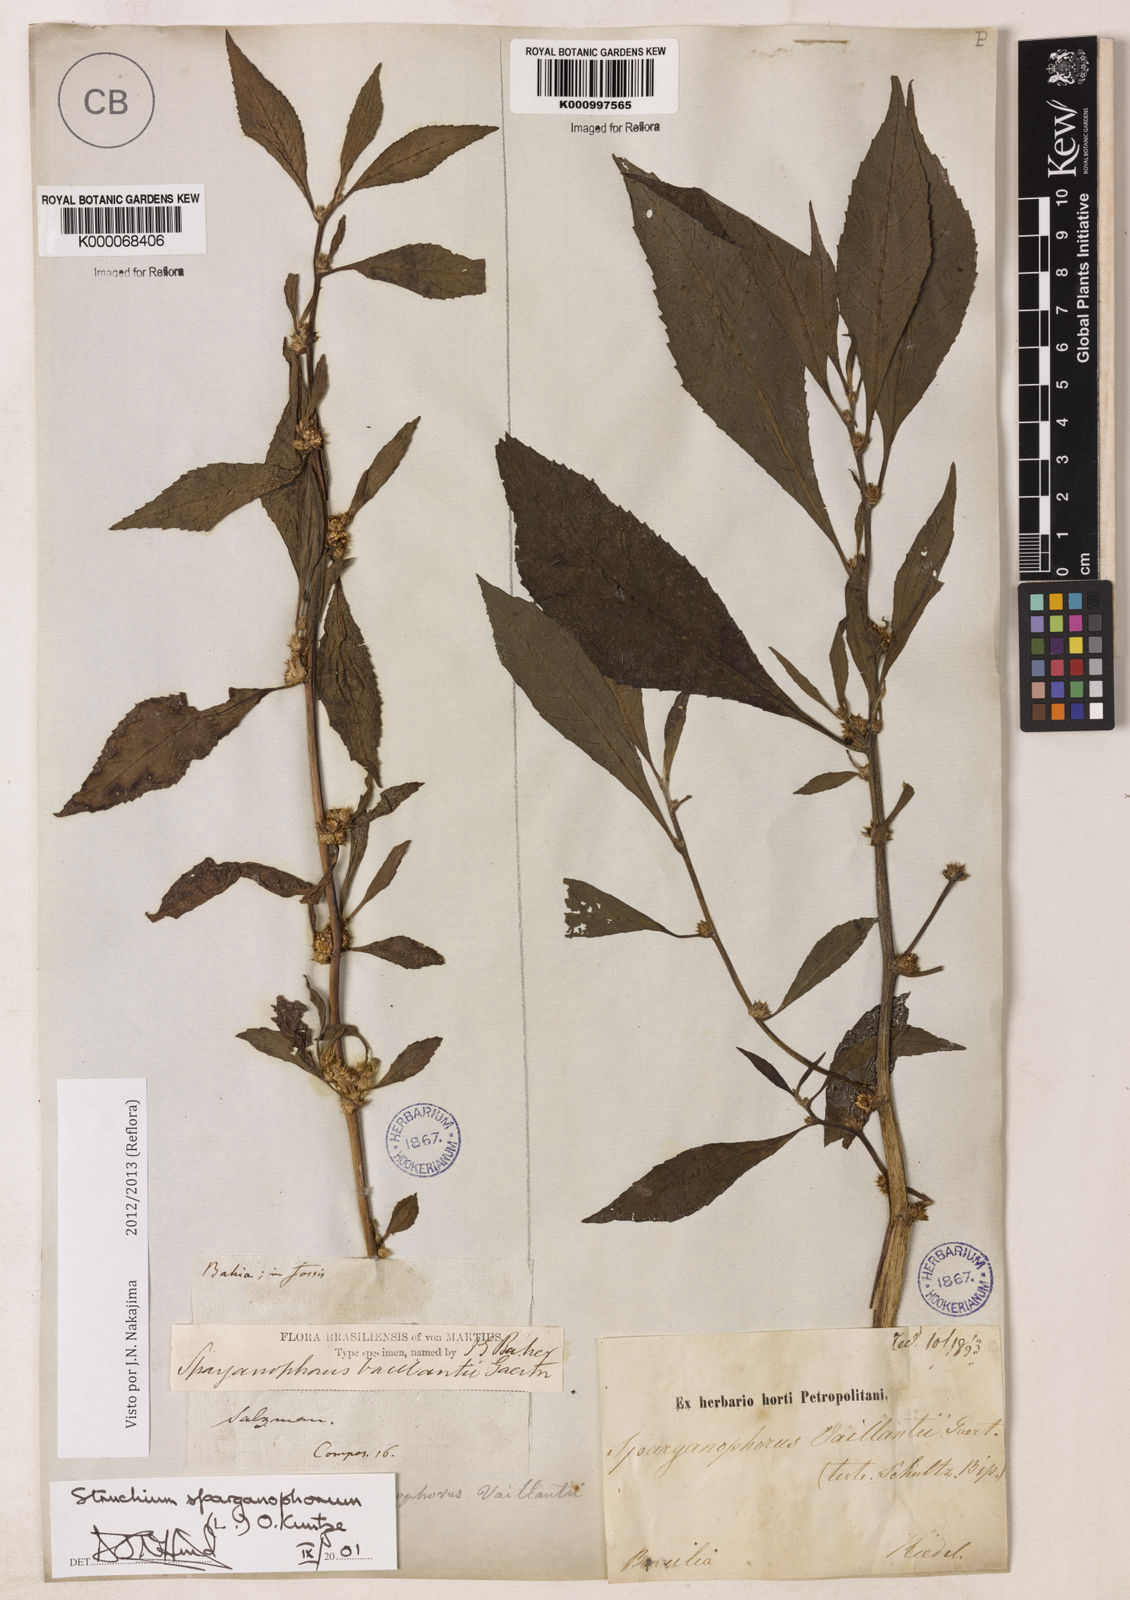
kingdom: Plantae
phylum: Tracheophyta
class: Magnoliopsida
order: Asterales
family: Asteraceae
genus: Struchium
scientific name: Struchium sparganophorum
